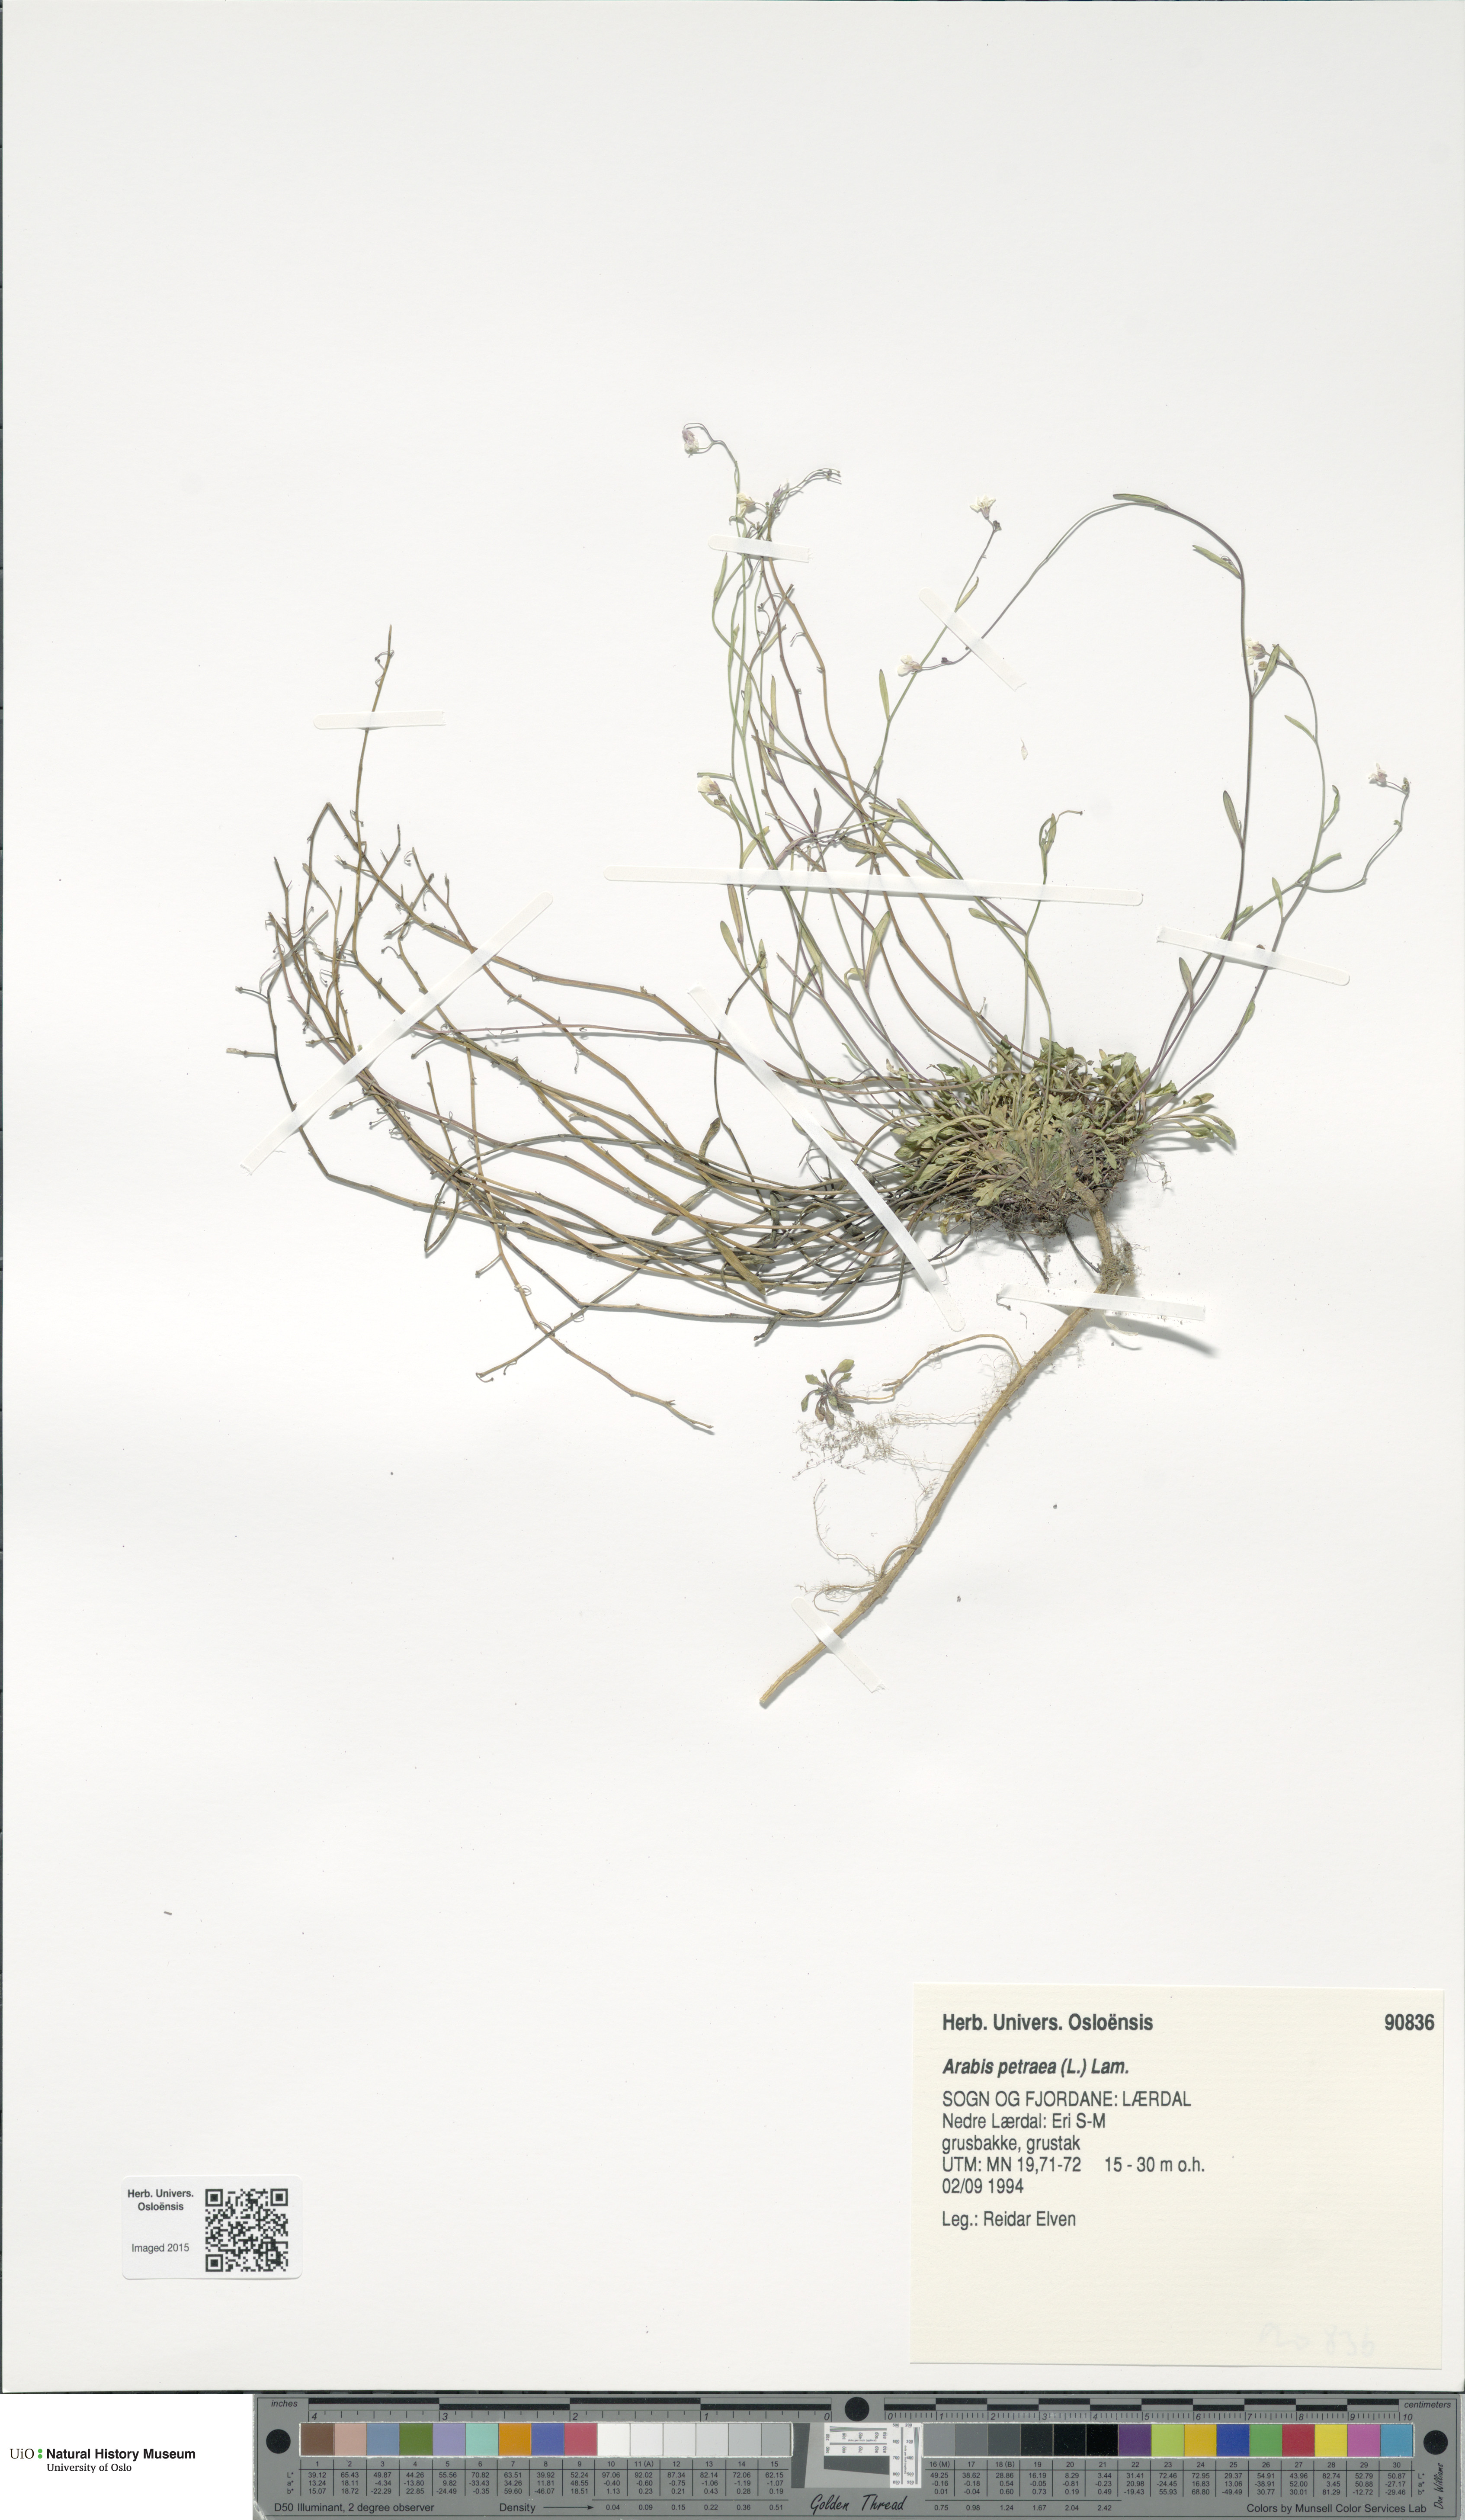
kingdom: Plantae
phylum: Tracheophyta
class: Magnoliopsida
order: Brassicales
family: Brassicaceae
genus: Arabidopsis
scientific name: Arabidopsis petraea
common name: Northern rock-cress
